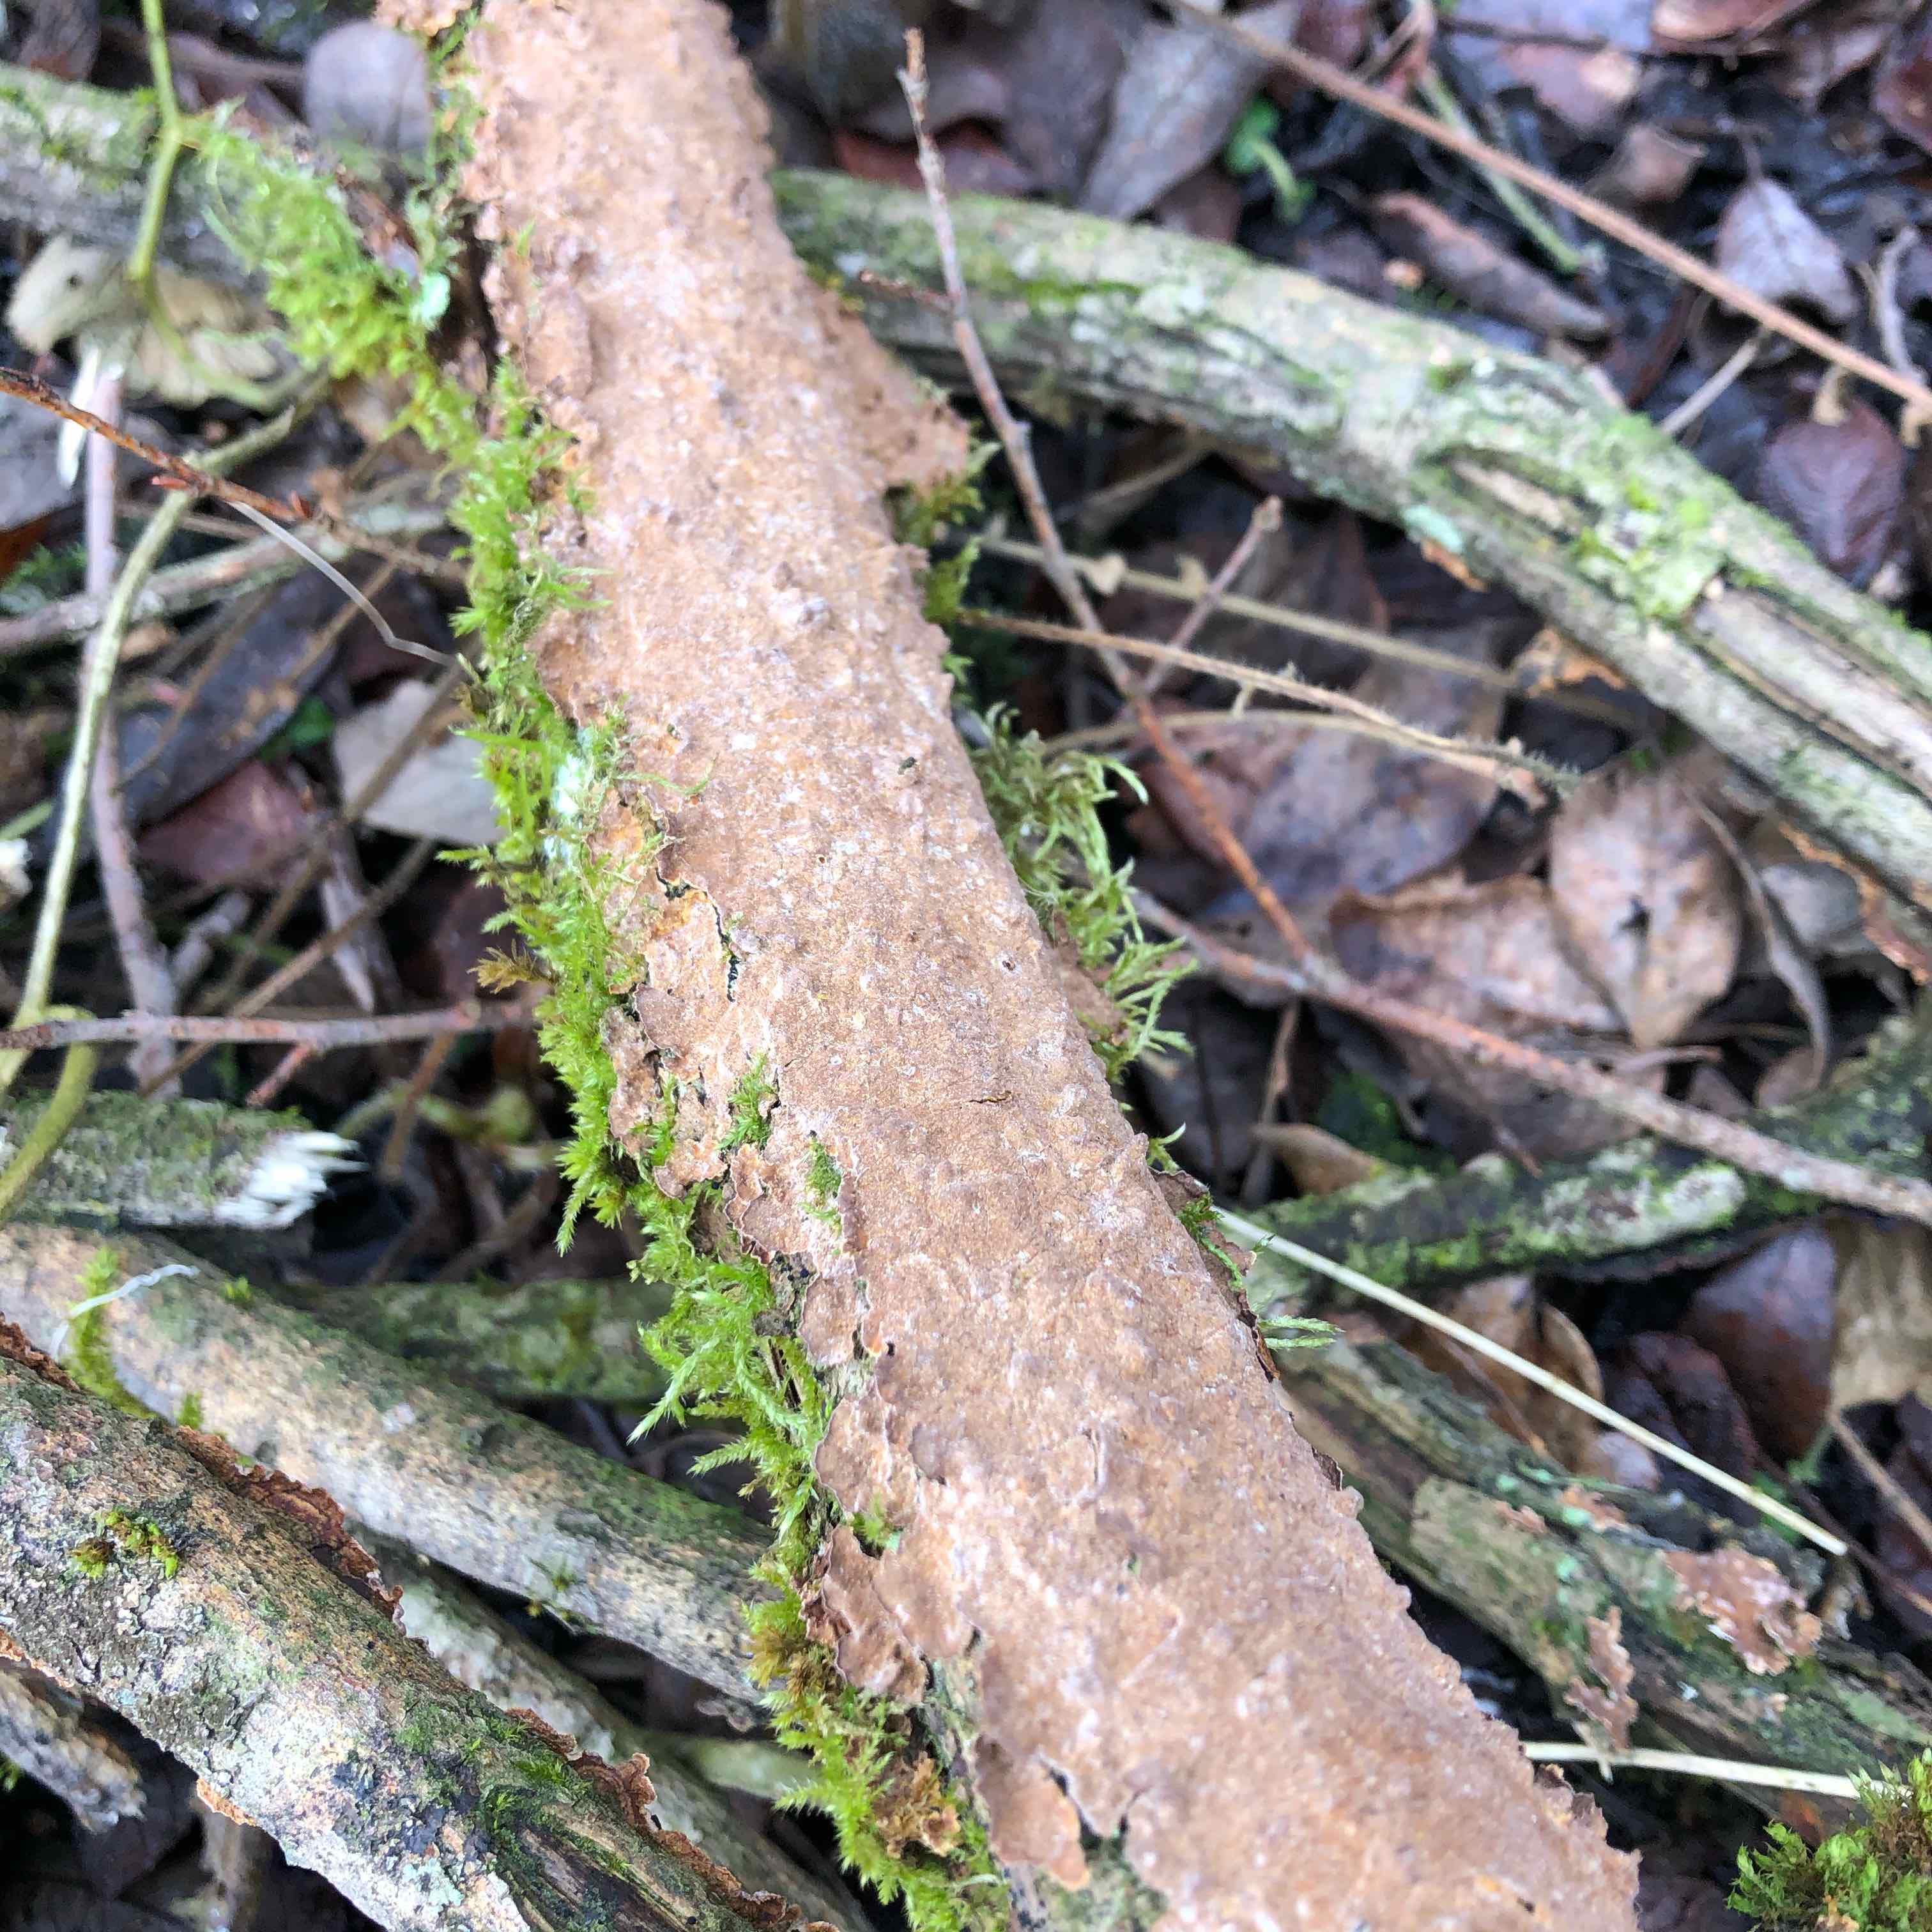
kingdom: Fungi
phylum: Basidiomycota
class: Agaricomycetes
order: Hymenochaetales
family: Hymenochaetaceae
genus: Hydnoporia
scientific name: Hydnoporia tabacina
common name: tobaksbrun ruslædersvamp
